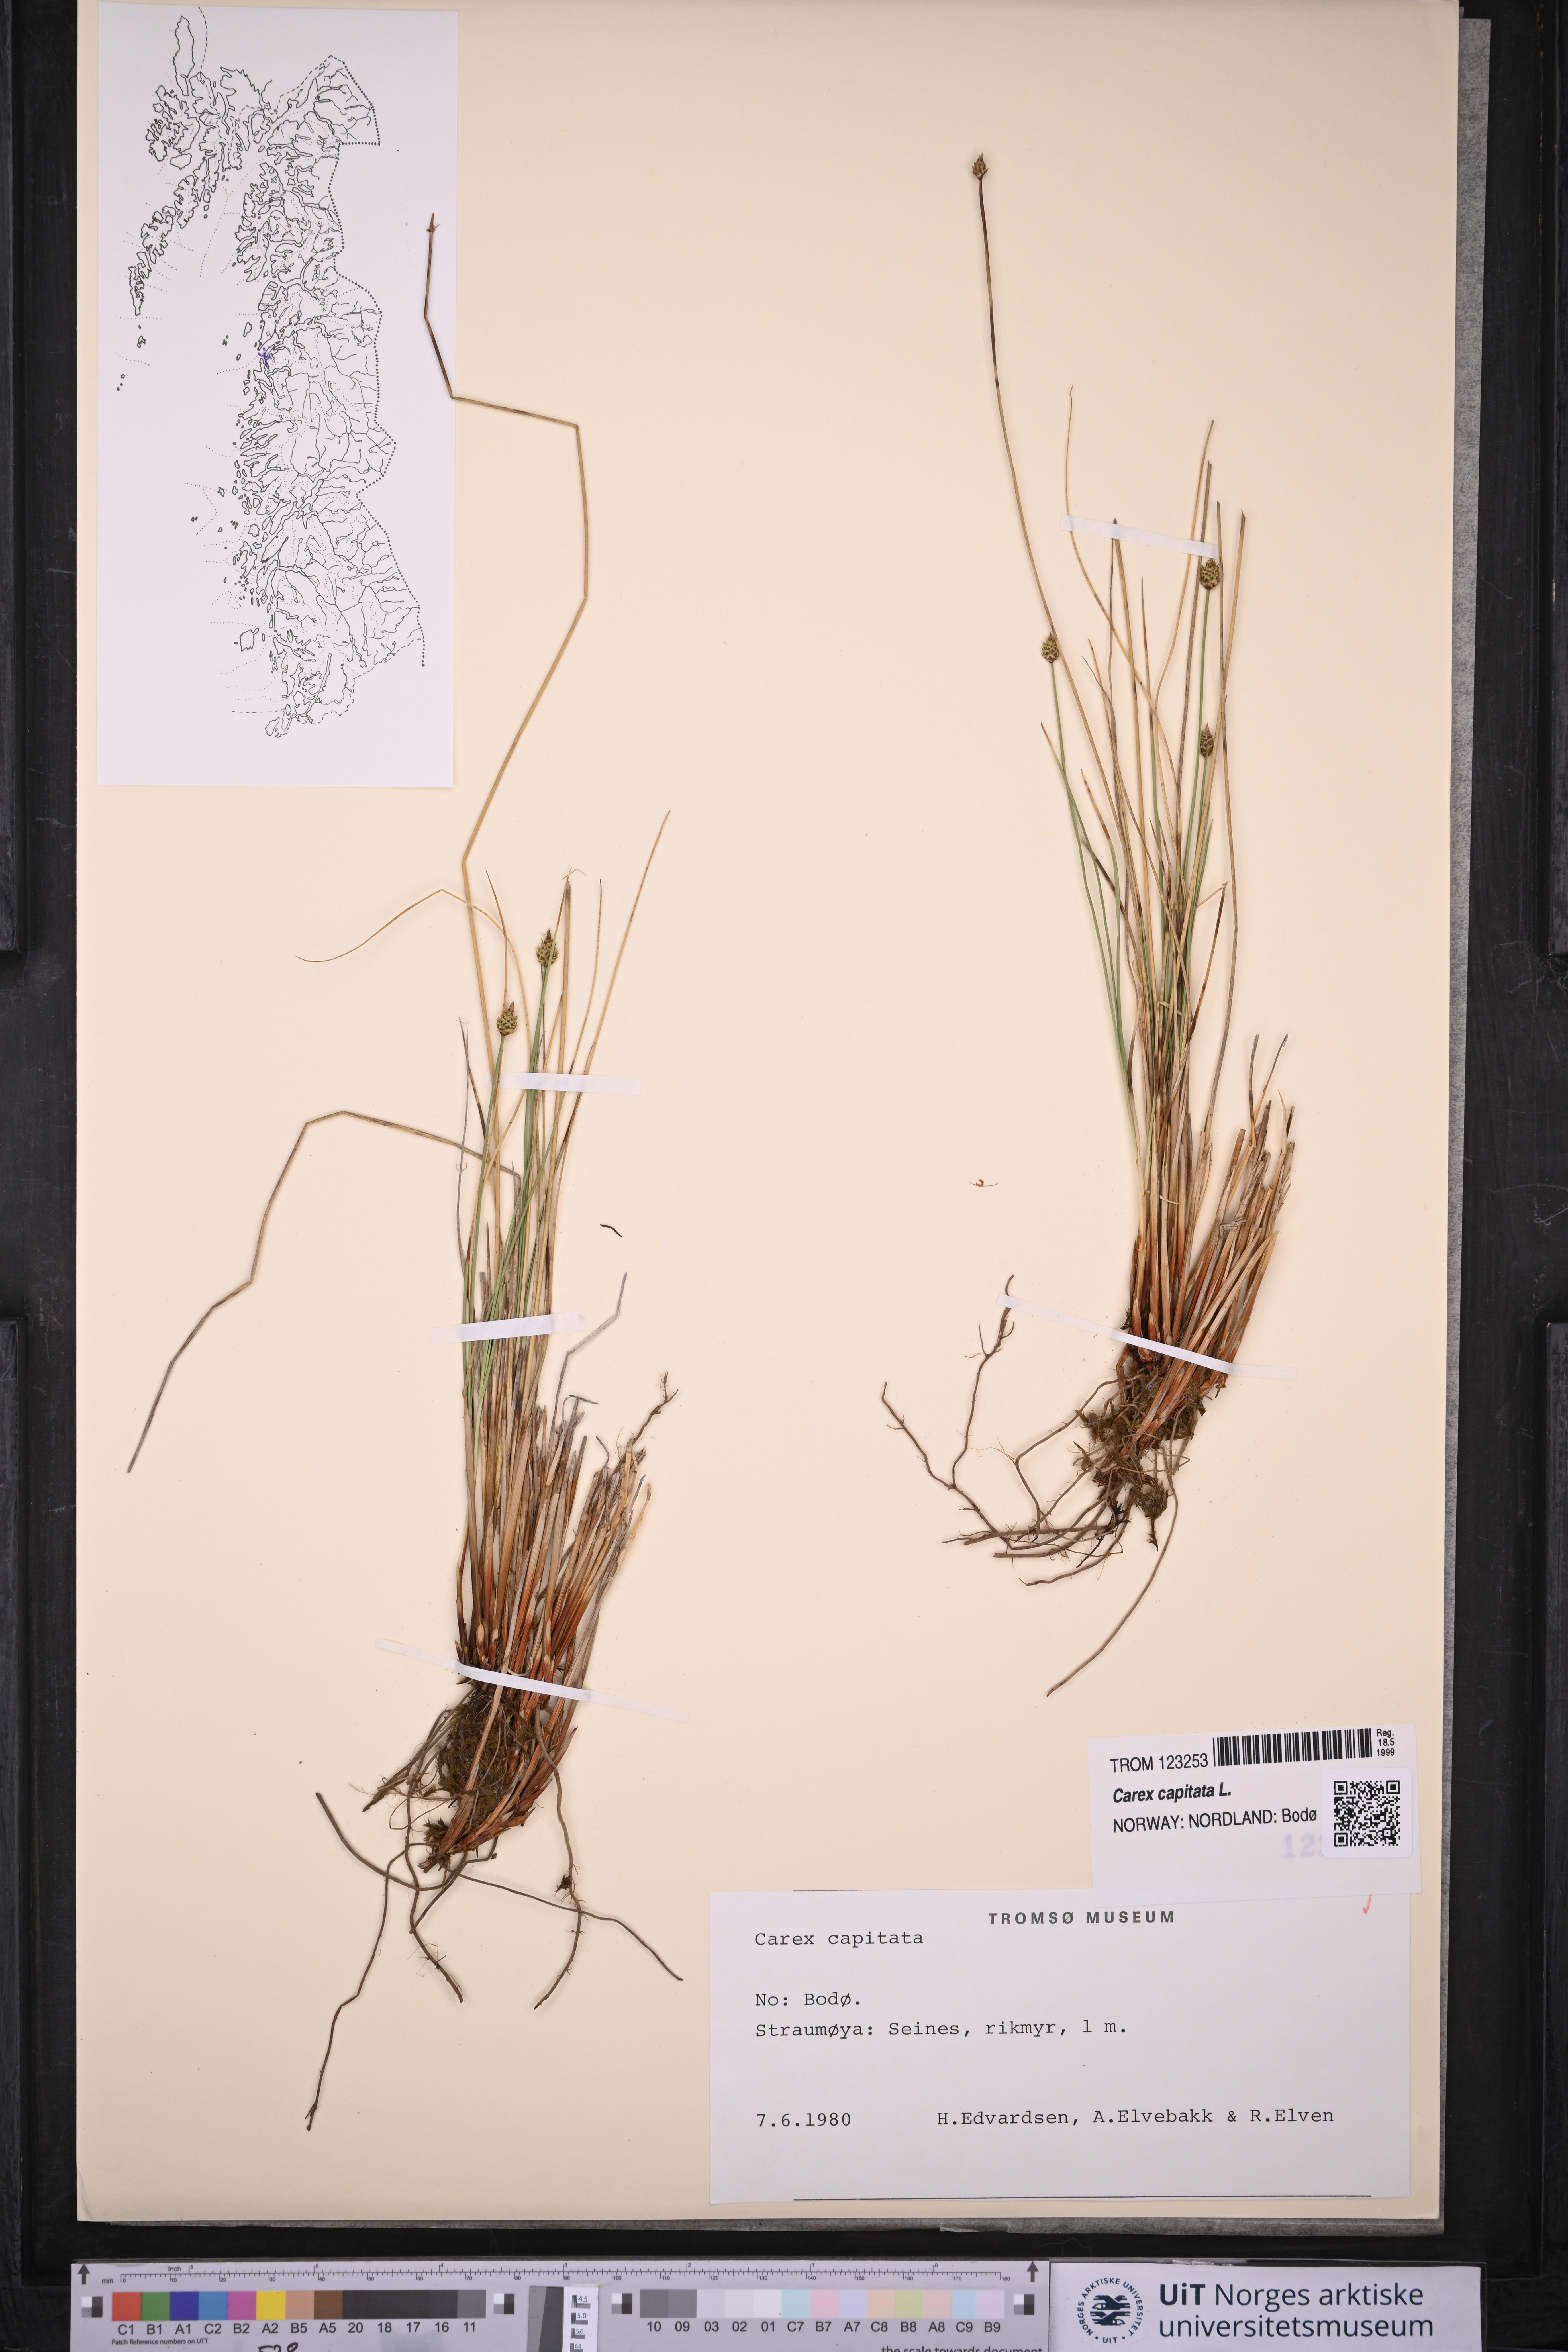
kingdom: Plantae
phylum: Tracheophyta
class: Liliopsida
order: Poales
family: Cyperaceae
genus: Carex
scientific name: Carex capitata
